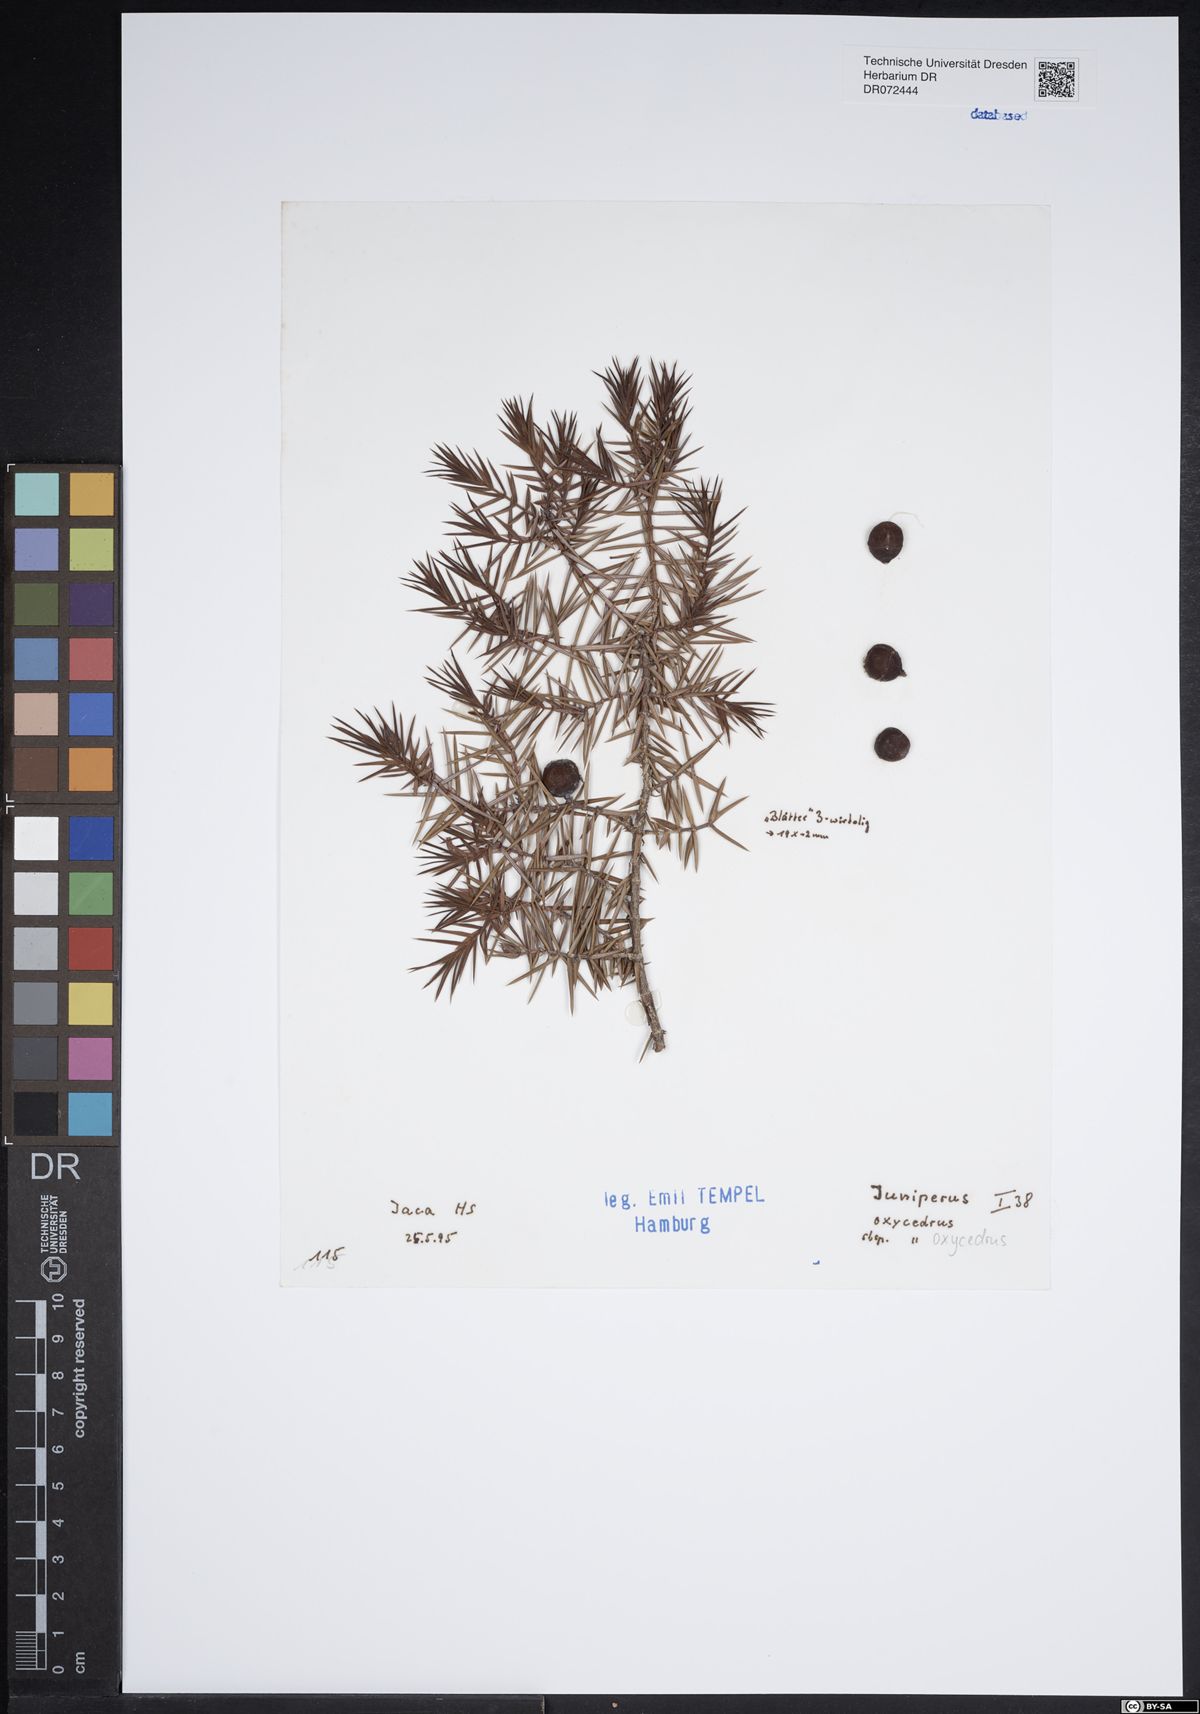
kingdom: Plantae
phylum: Tracheophyta
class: Pinopsida
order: Pinales
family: Cupressaceae
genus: Juniperus
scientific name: Juniperus oxycedrus
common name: Prickly juniper
